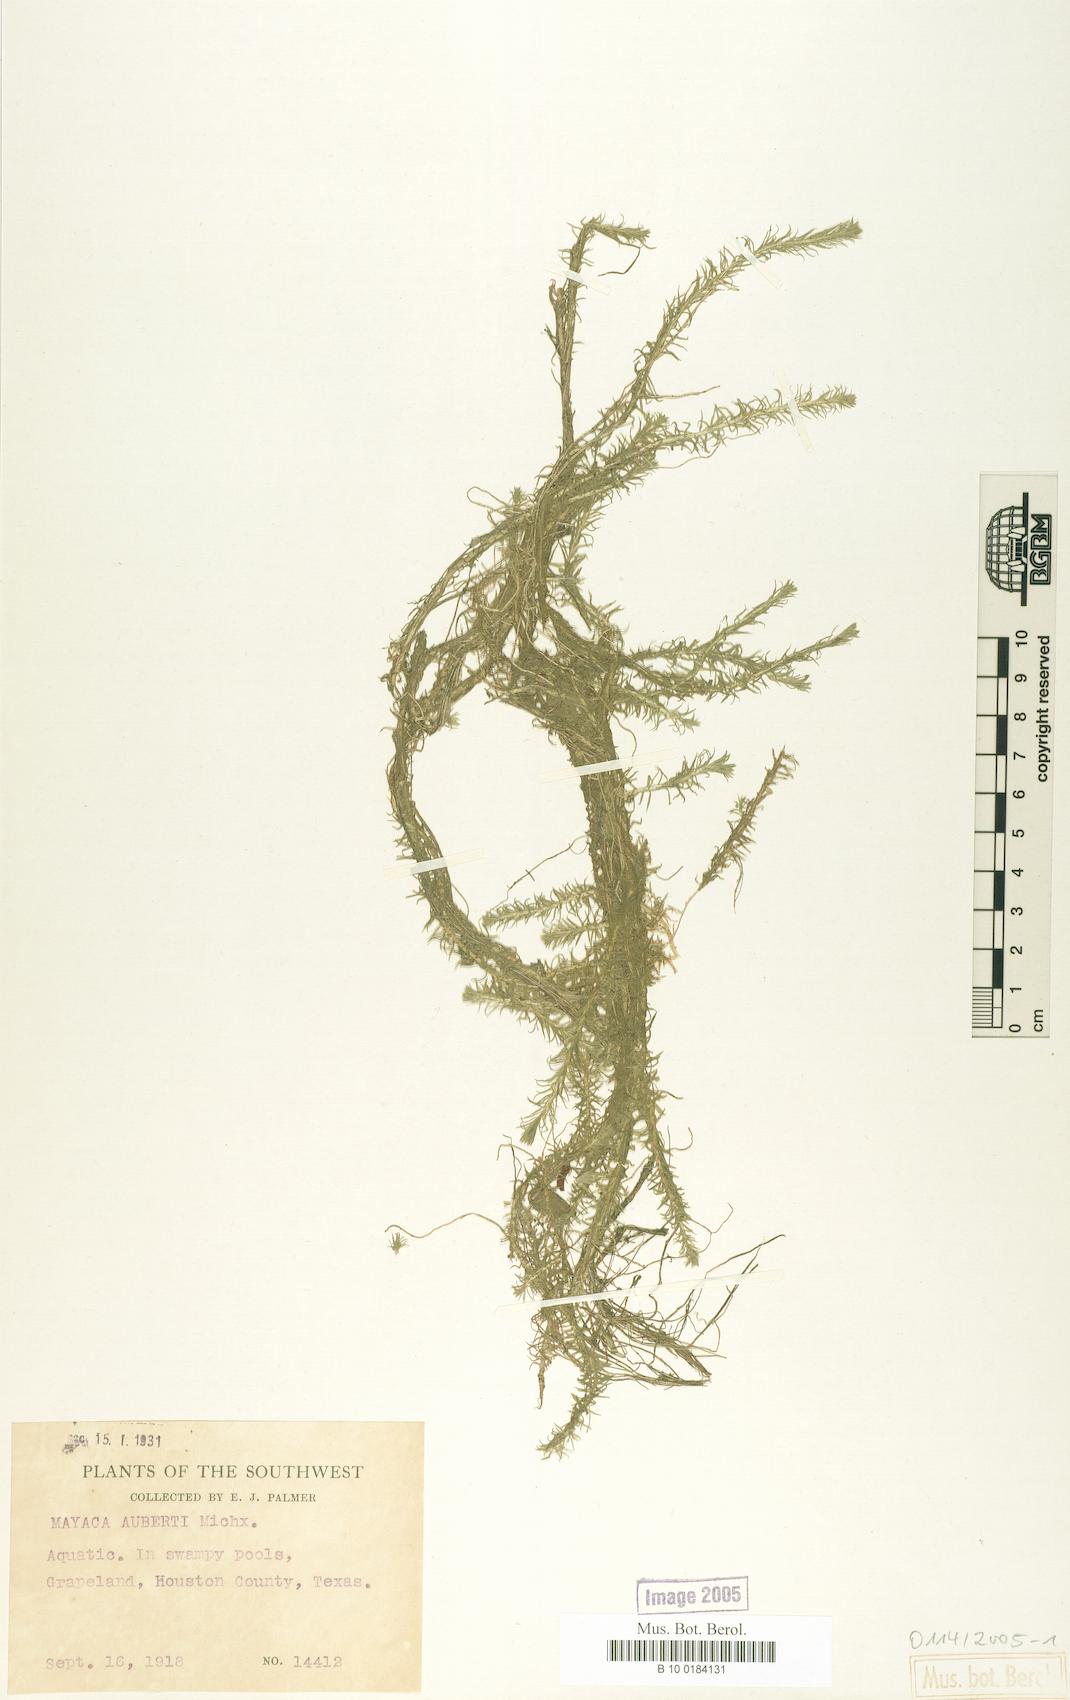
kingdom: Plantae
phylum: Tracheophyta
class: Liliopsida
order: Poales
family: Mayacaceae
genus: Mayaca
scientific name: Mayaca fluviatilis
